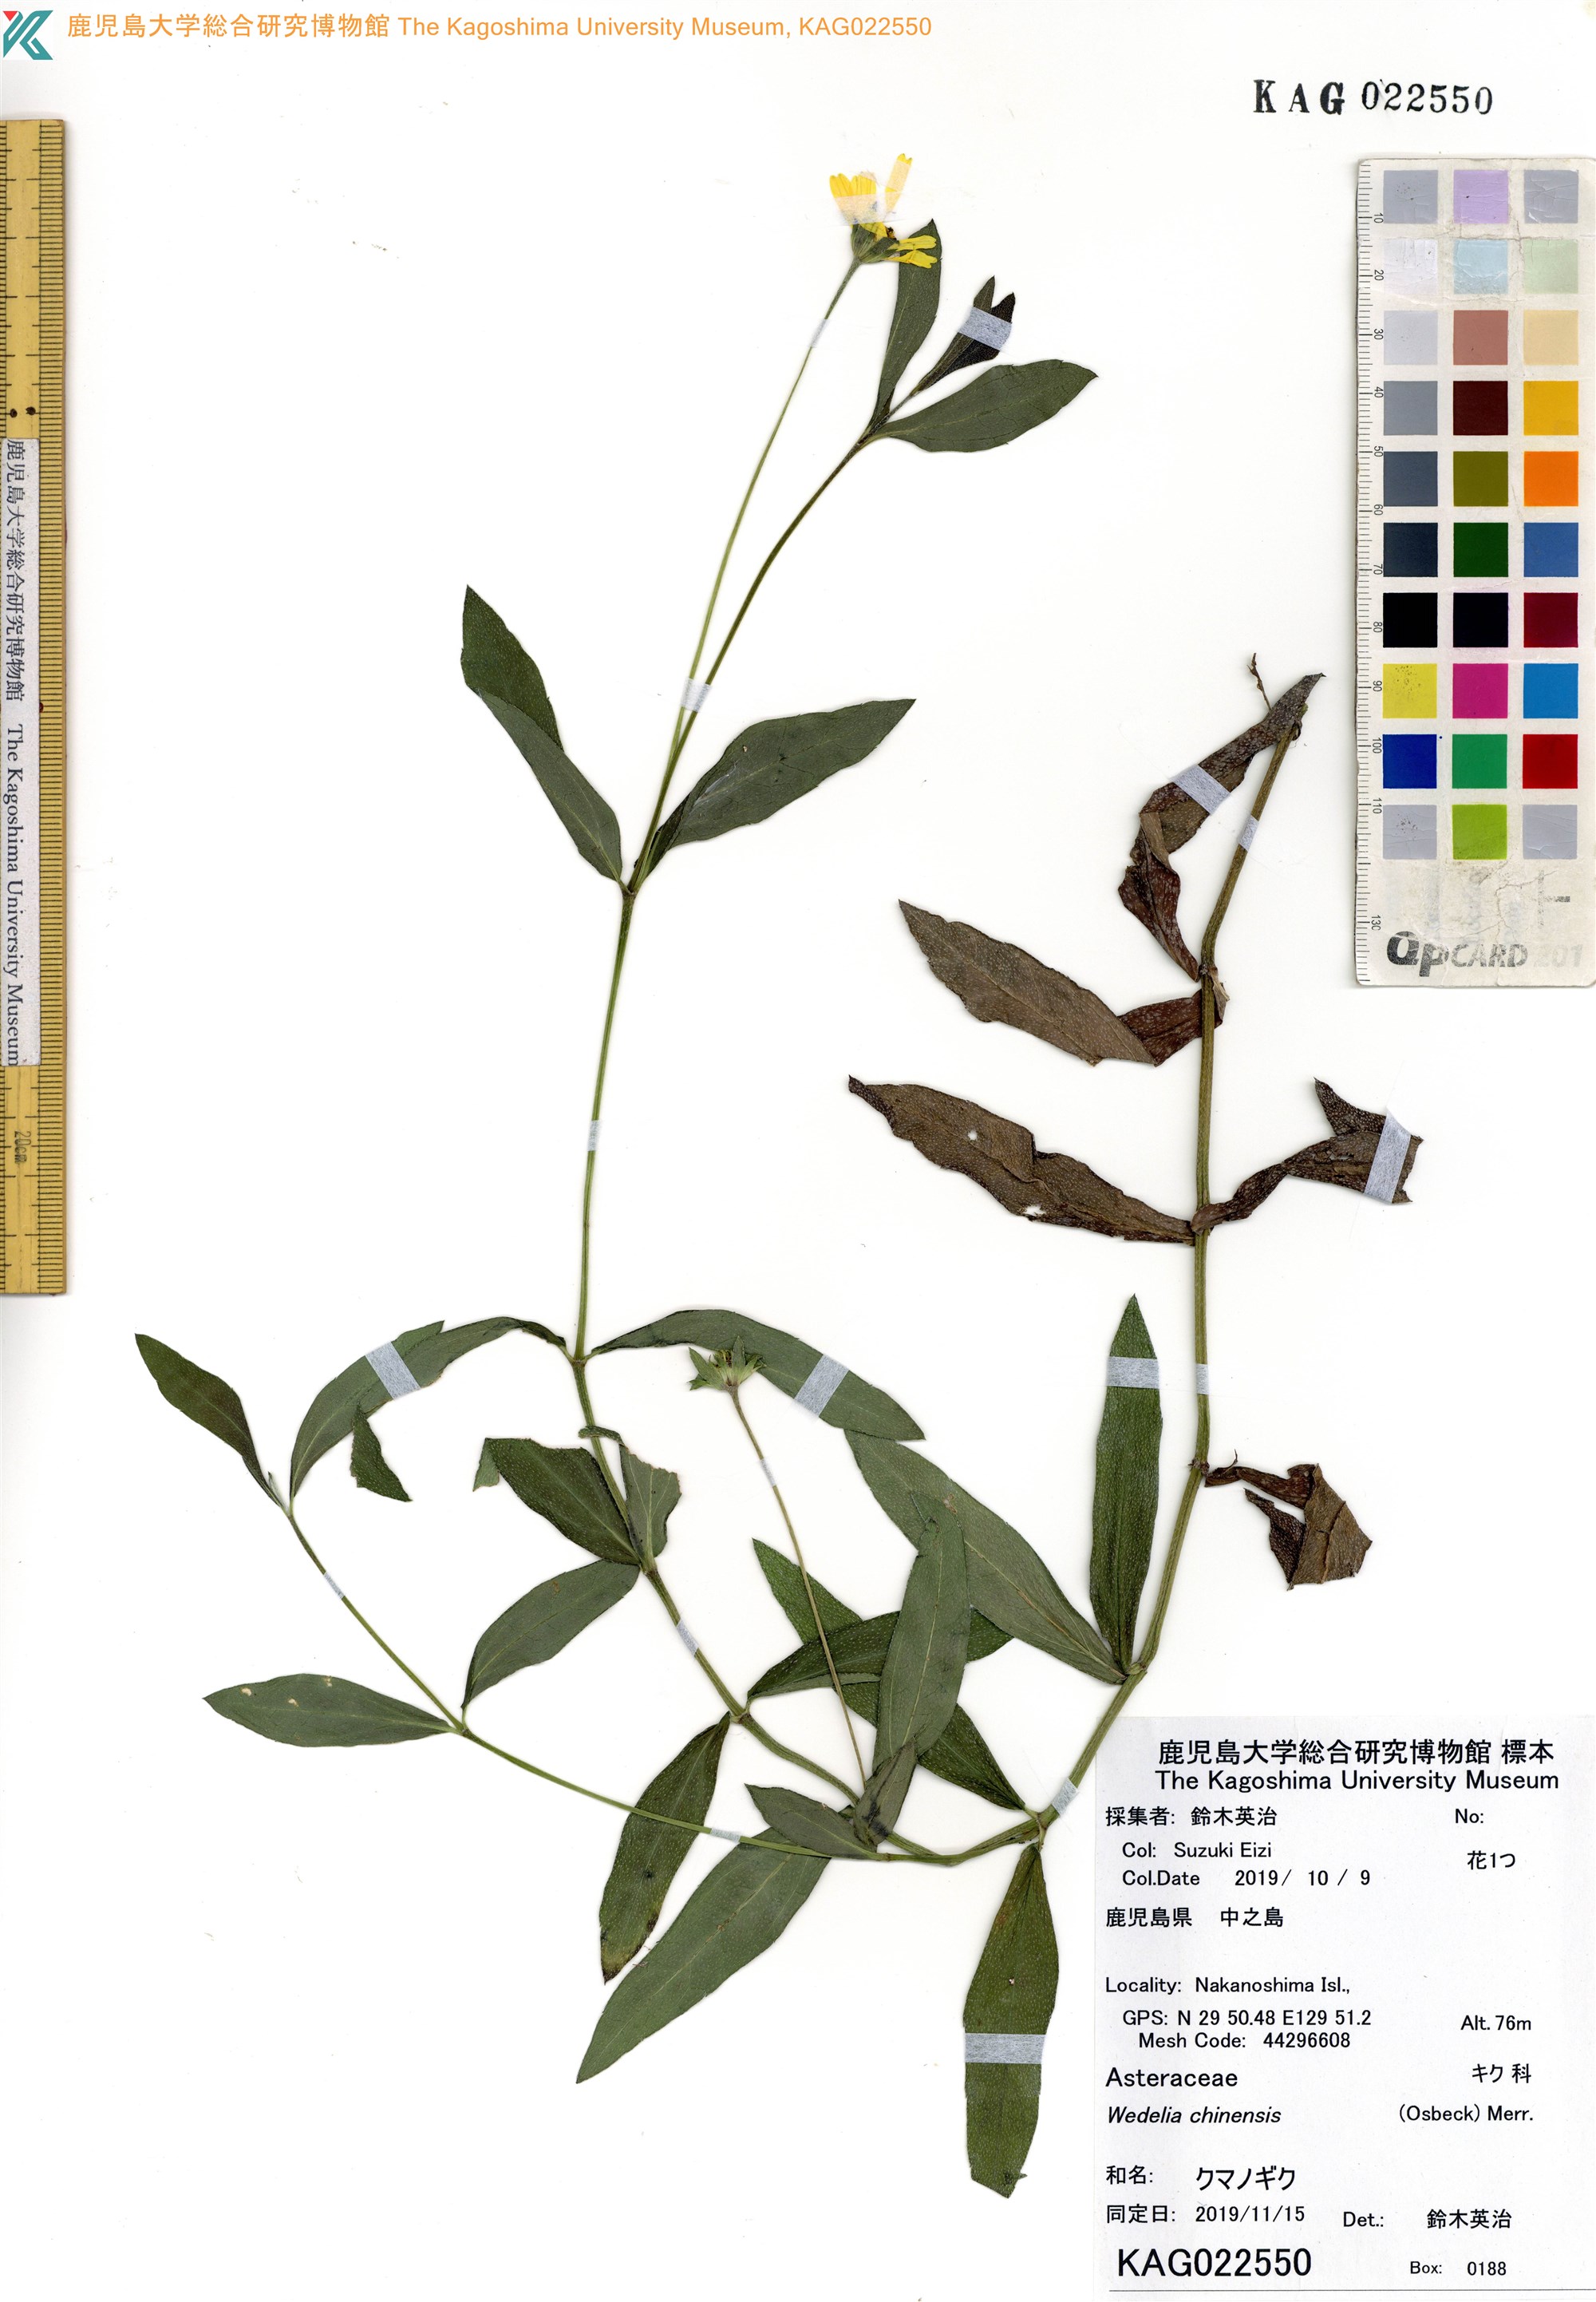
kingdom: Plantae
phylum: Tracheophyta
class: Magnoliopsida
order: Asterales
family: Asteraceae
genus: Sphagneticola
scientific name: Sphagneticola calendulacea
